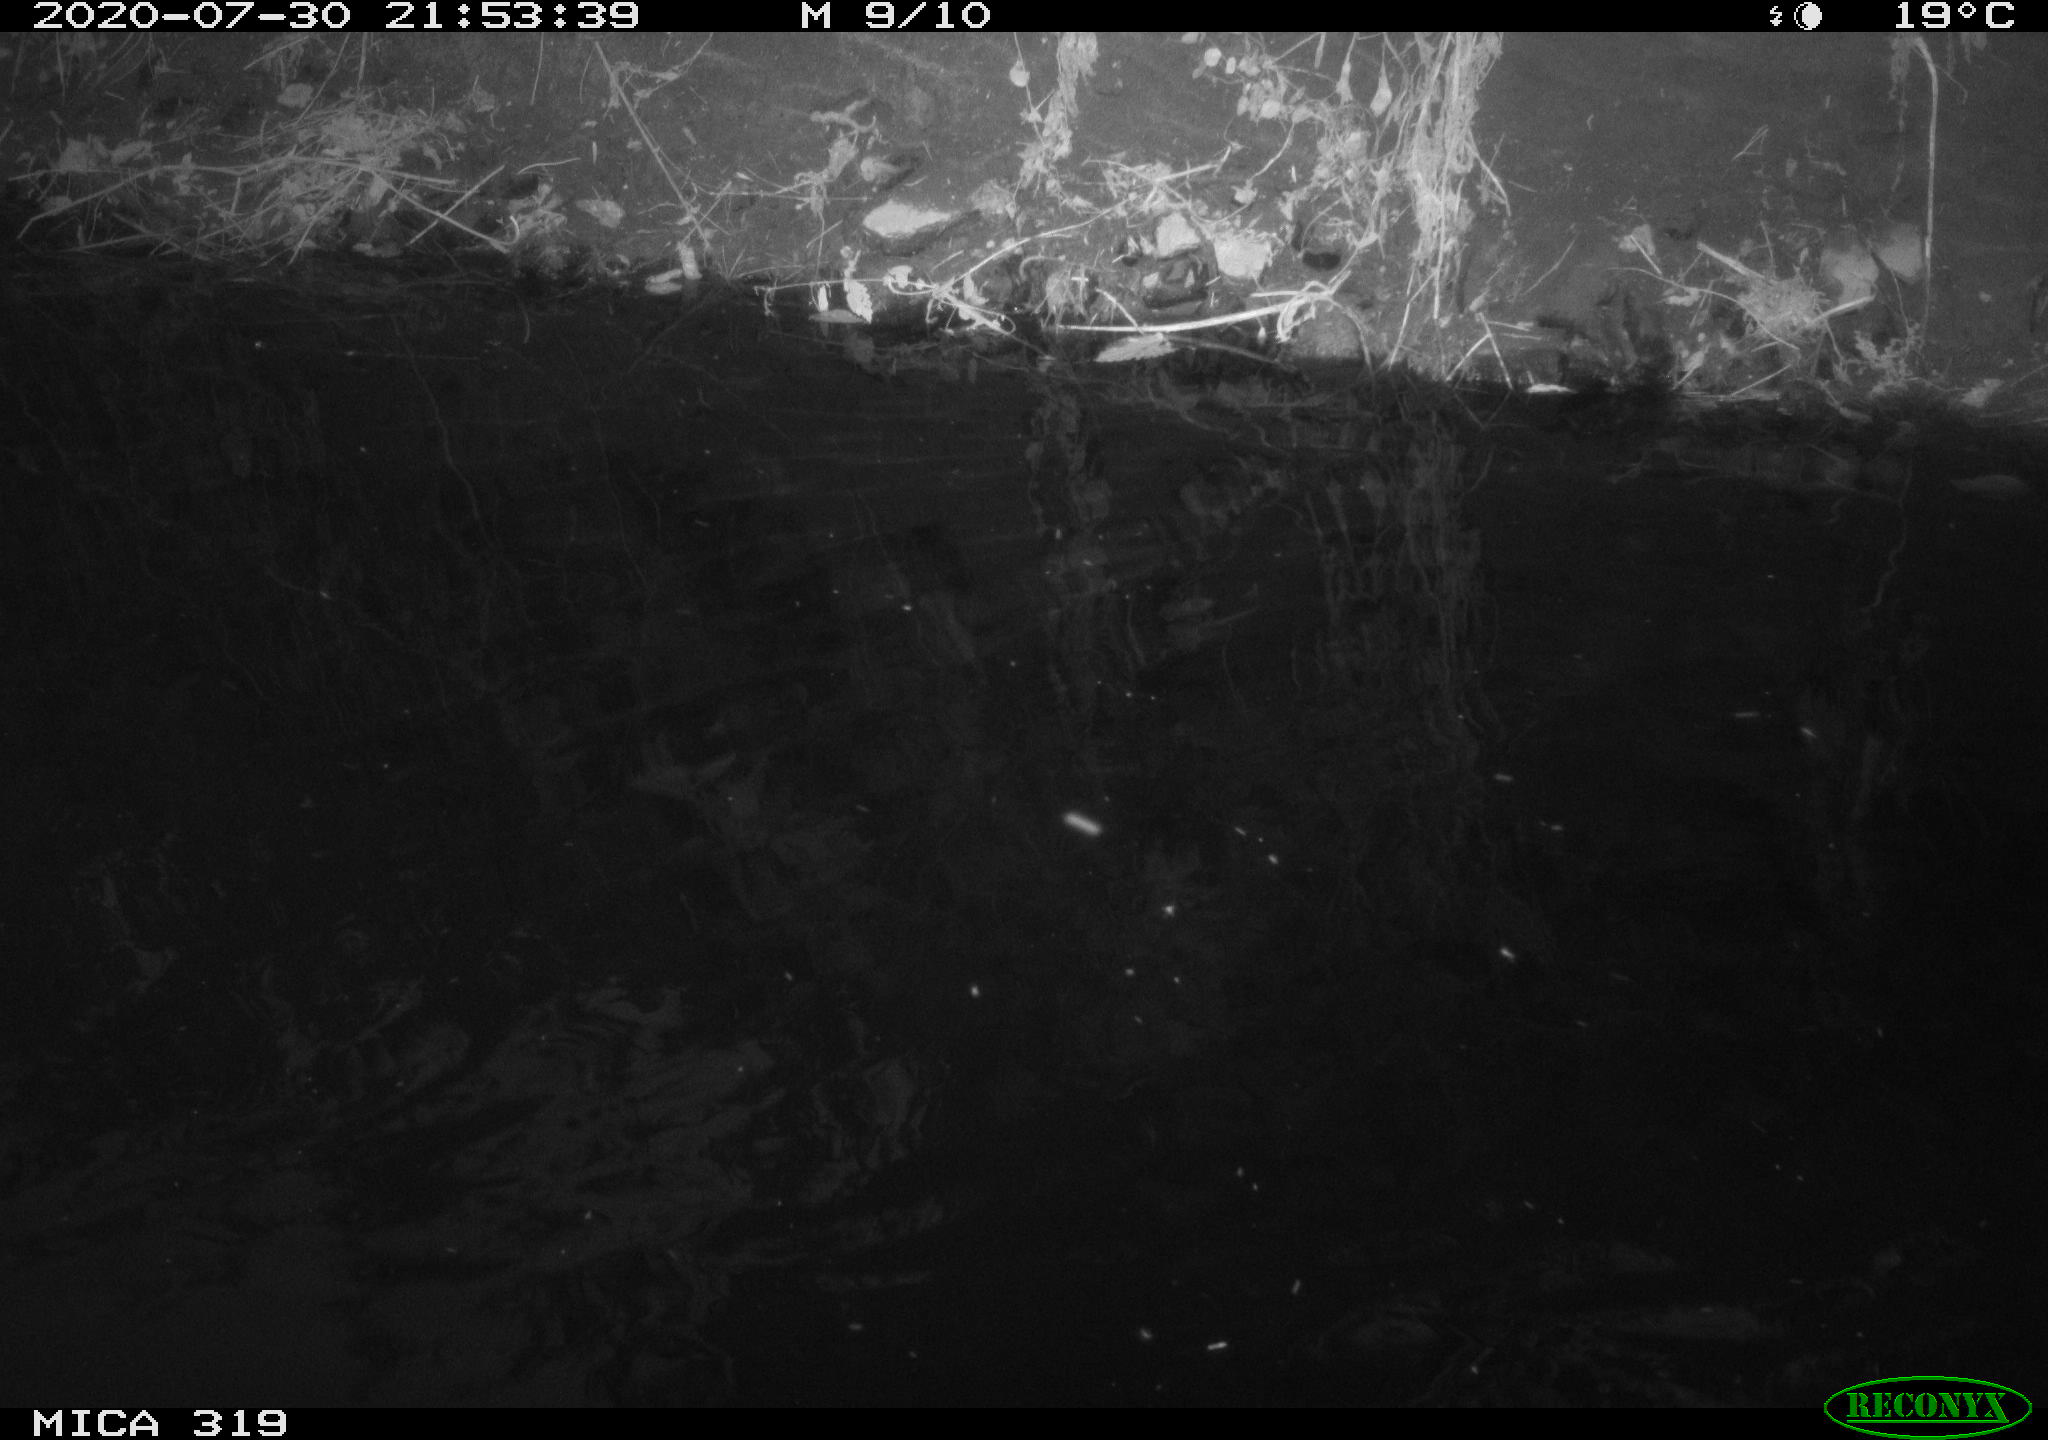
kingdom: Animalia
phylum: Chordata
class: Aves
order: Anseriformes
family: Anatidae
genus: Anas
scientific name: Anas platyrhynchos
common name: Mallard
